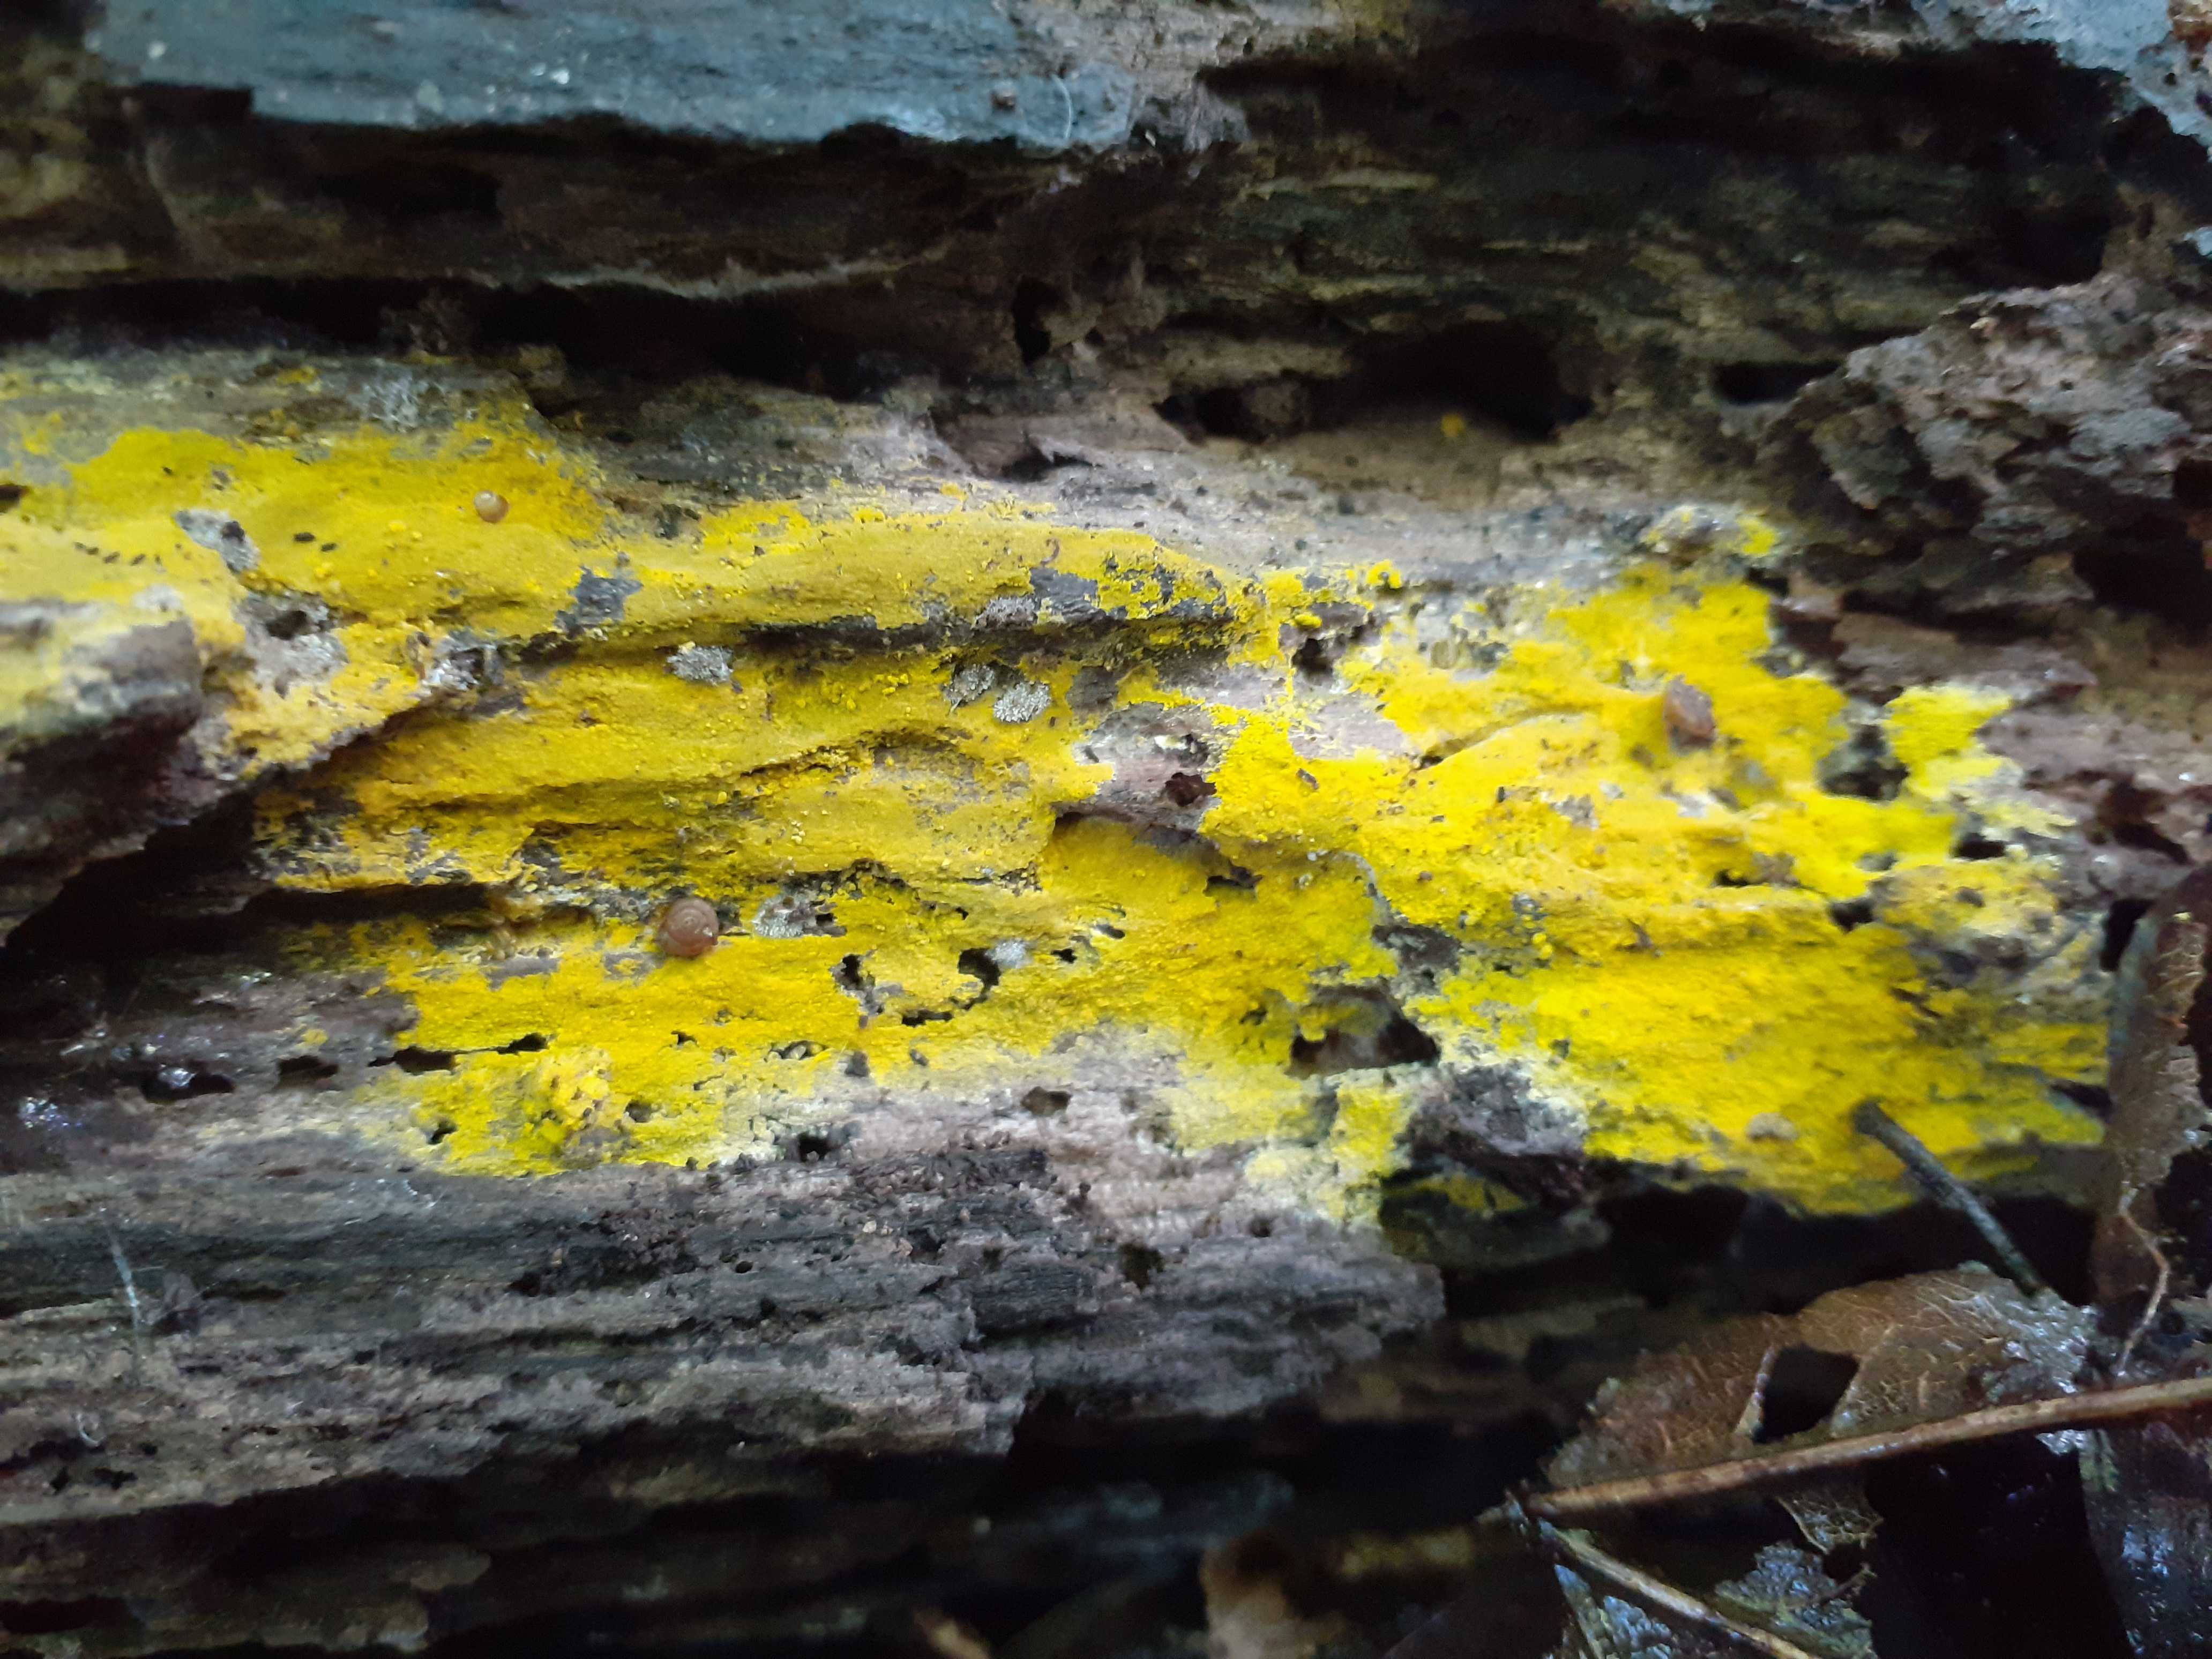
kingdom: Fungi
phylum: Basidiomycota
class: Agaricomycetes
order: Polyporales
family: Meruliaceae
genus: Phlebiodontia
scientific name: Phlebiodontia subochracea
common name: svovl-åresvamp
